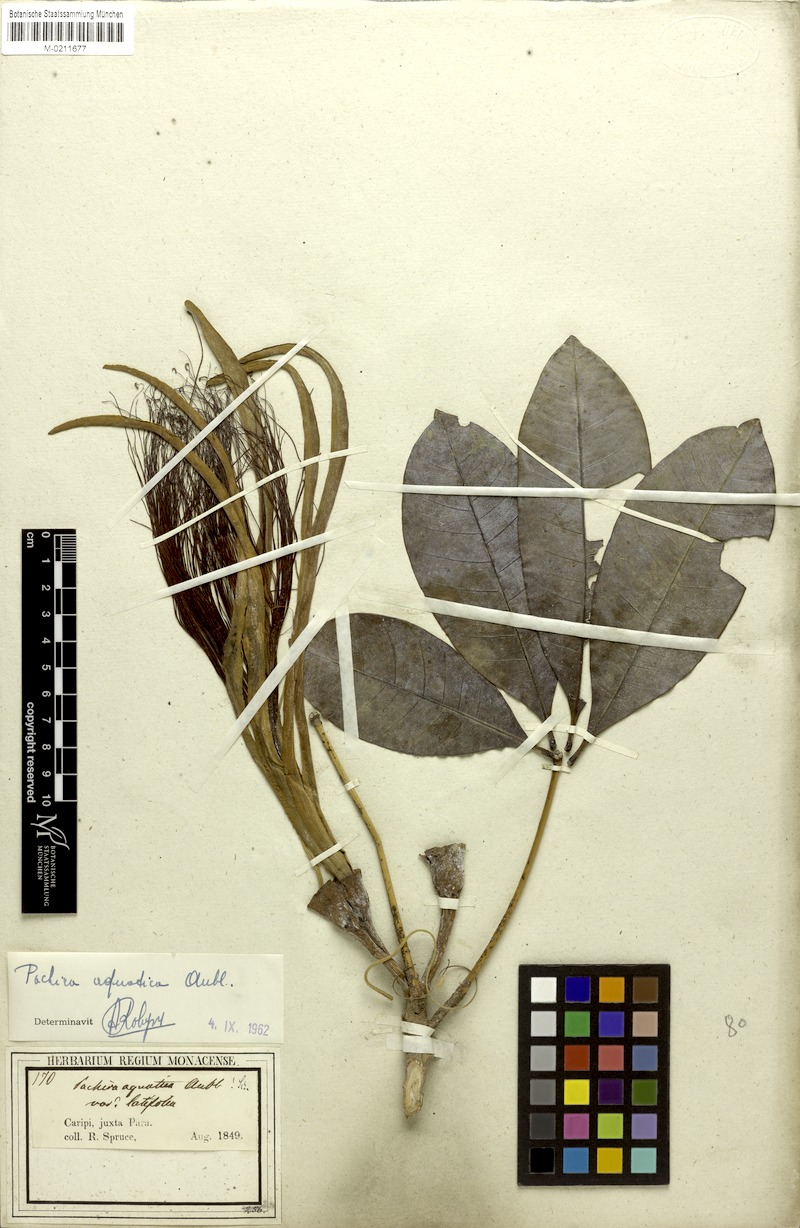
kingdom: Plantae
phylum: Tracheophyta
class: Magnoliopsida
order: Malvales
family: Malvaceae
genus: Pachira
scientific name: Pachira aquatica
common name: Provision-tree
